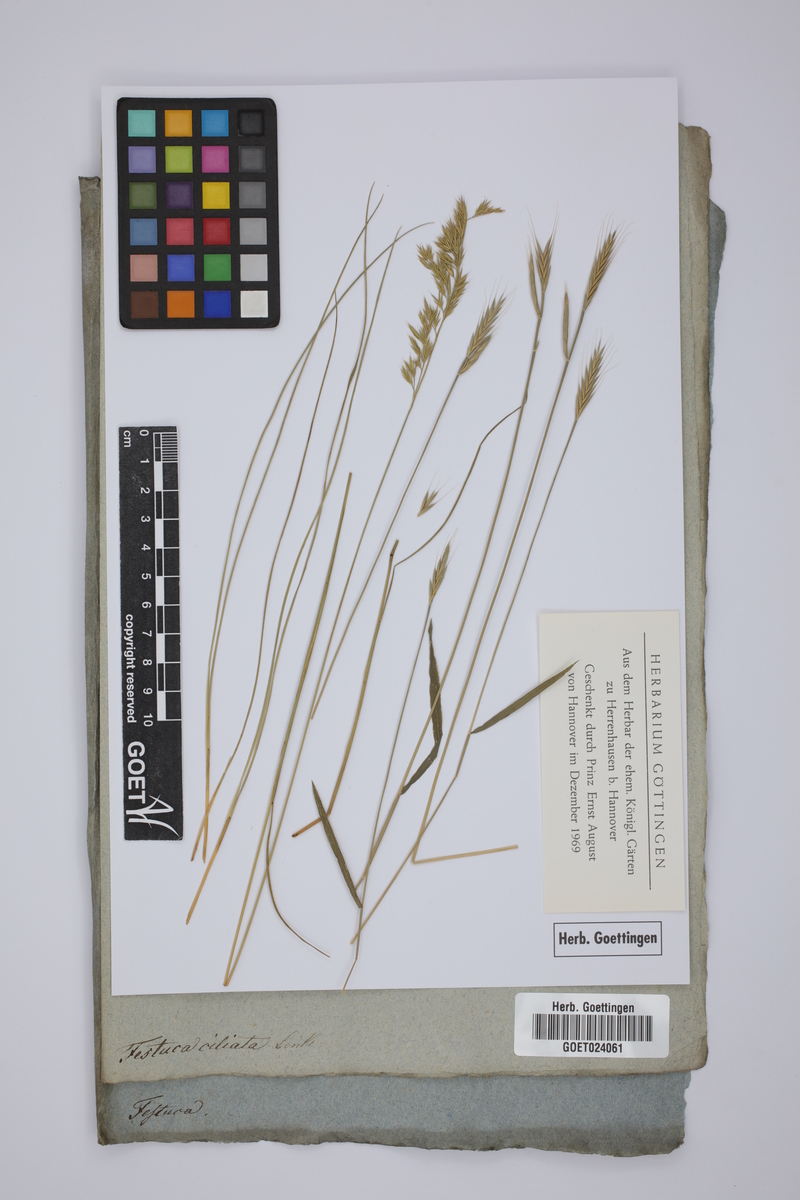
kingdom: Plantae
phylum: Tracheophyta
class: Liliopsida
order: Poales
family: Poaceae
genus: Festuca
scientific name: Festuca alopecuros
